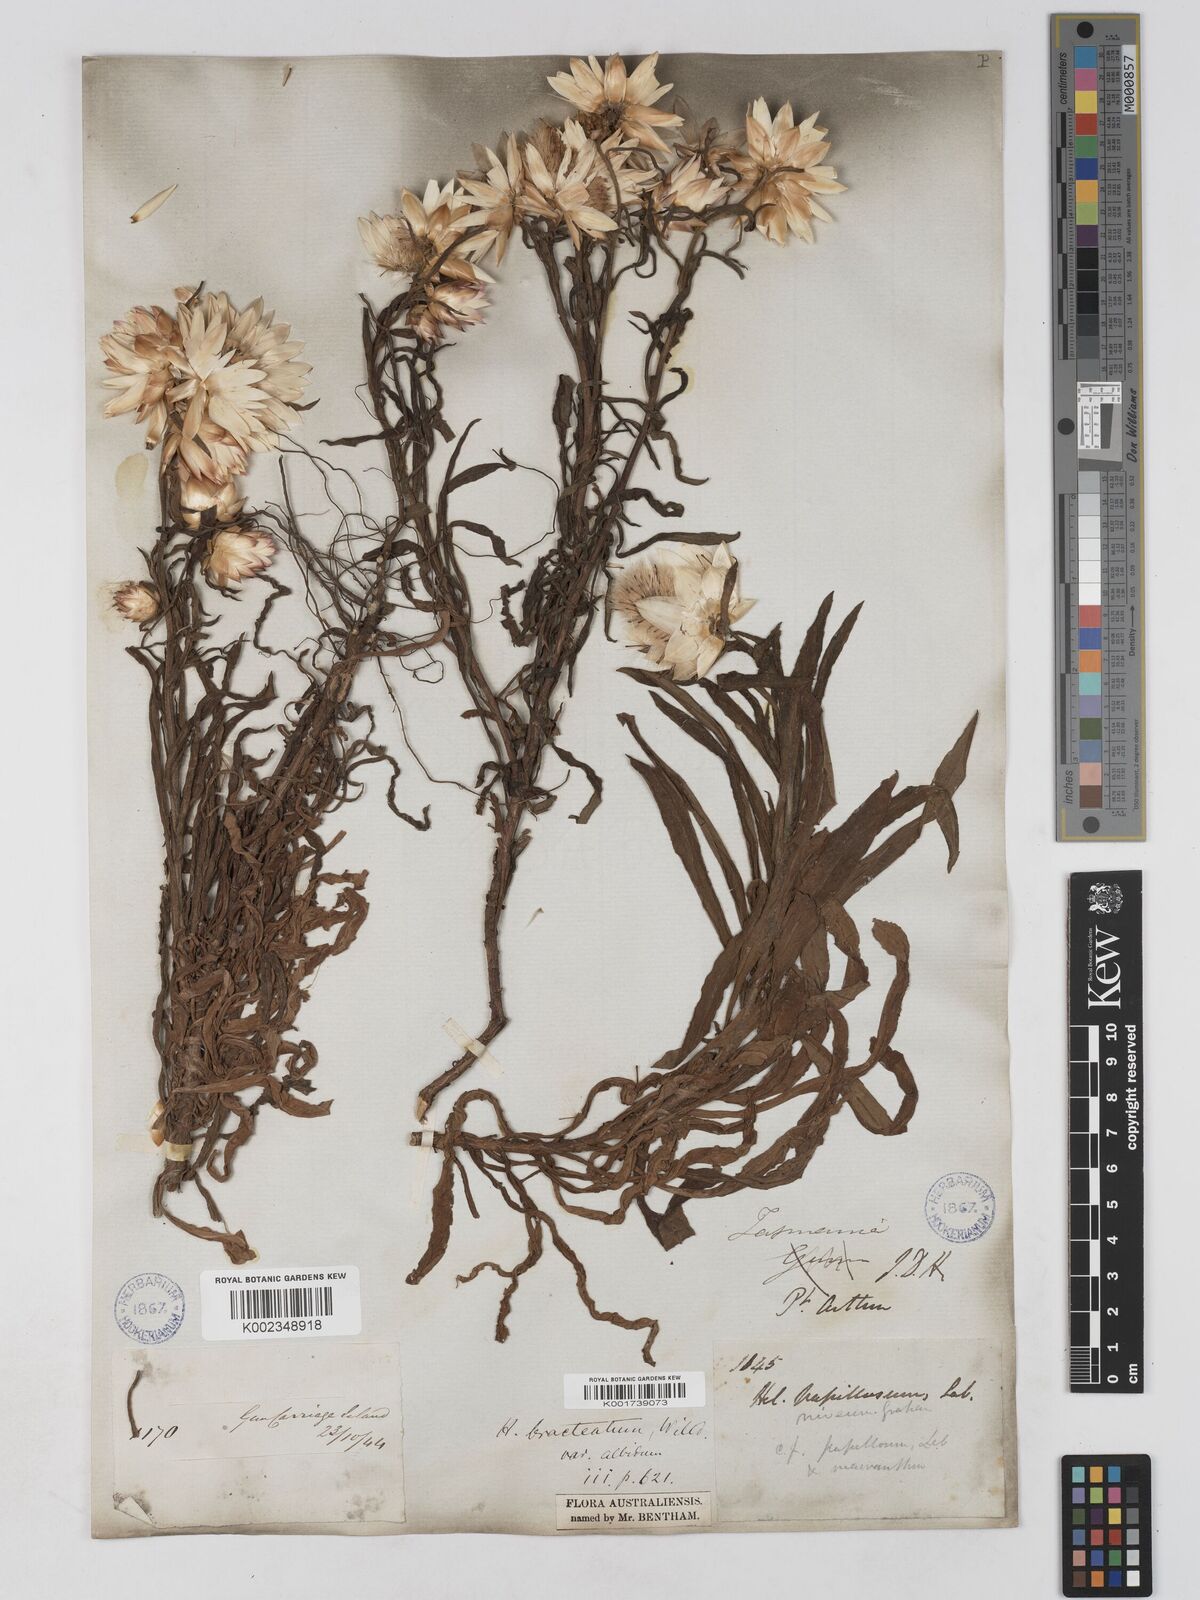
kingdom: Plantae
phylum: Tracheophyta
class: Magnoliopsida
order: Asterales
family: Asteraceae
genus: Xerochrysum
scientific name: Xerochrysum papillosum
